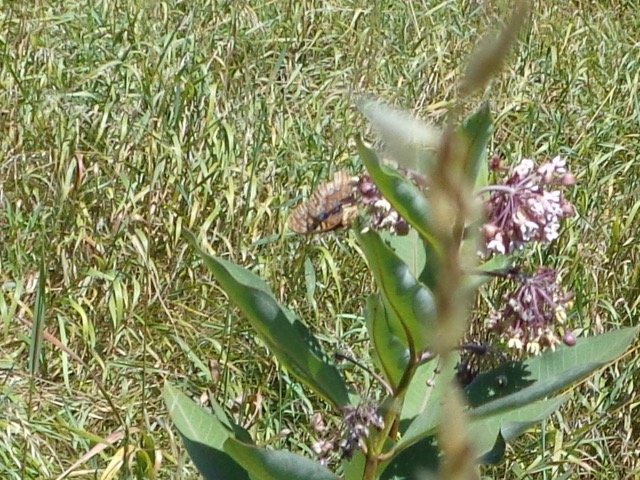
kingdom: Animalia
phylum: Arthropoda
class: Insecta
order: Lepidoptera
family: Nymphalidae
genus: Speyeria
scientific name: Speyeria cybele
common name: Great Spangled Fritillary
